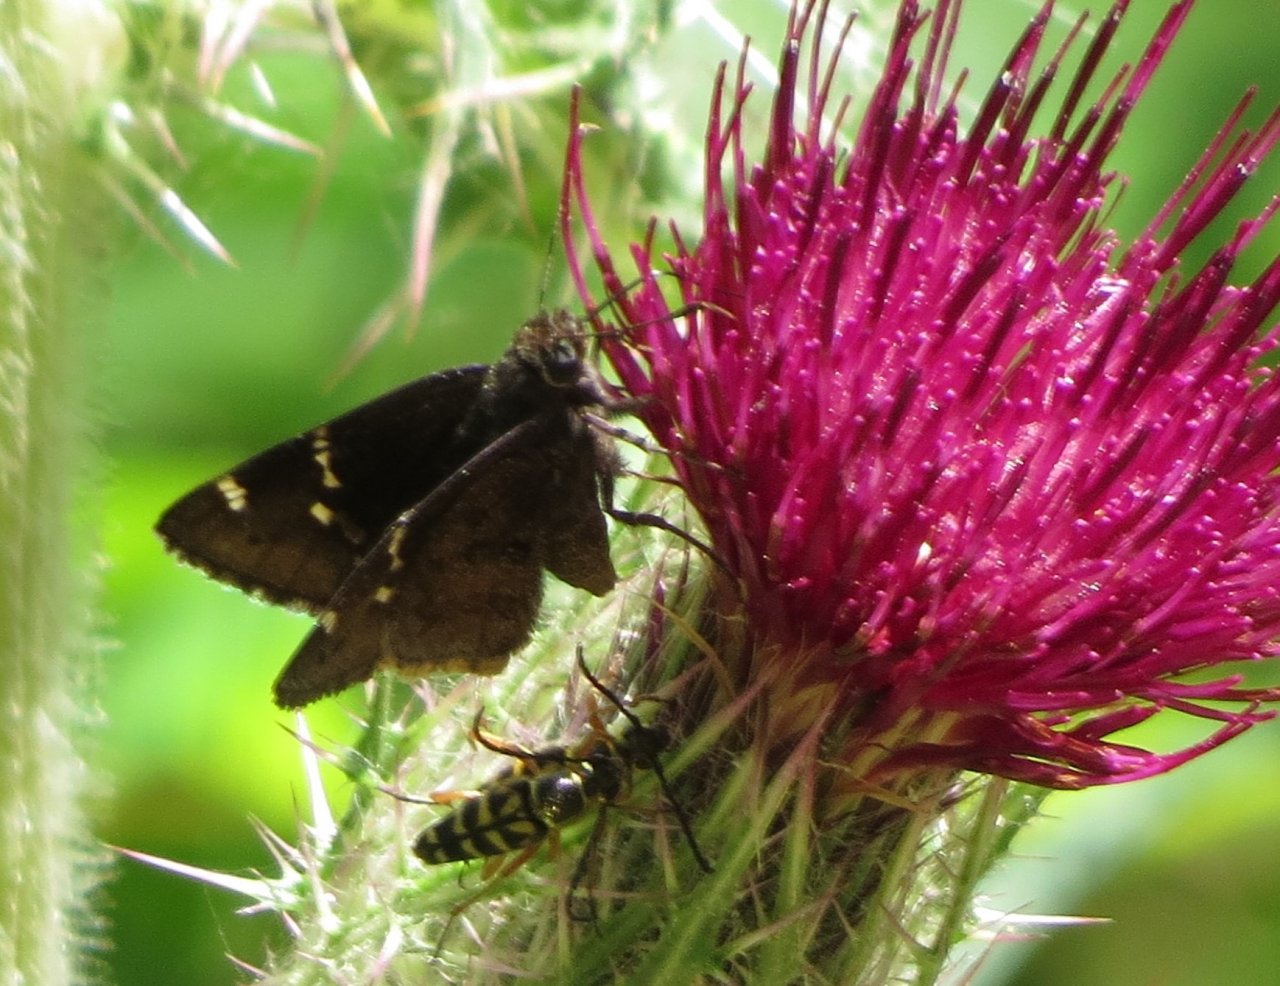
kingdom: Animalia
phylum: Arthropoda
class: Insecta
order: Lepidoptera
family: Hesperiidae
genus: Autochton
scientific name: Autochton
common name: Northern Cloudywing
